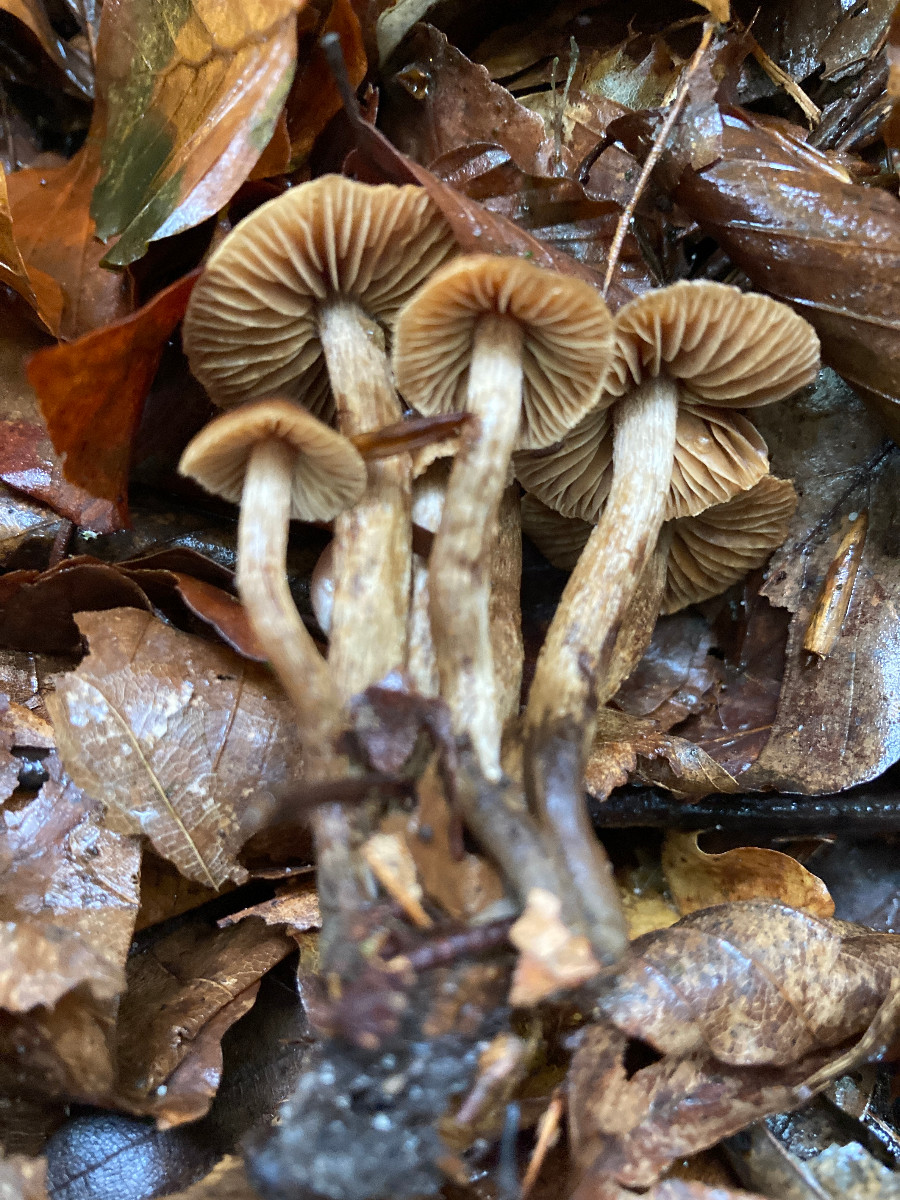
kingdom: Fungi
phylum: Basidiomycota
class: Agaricomycetes
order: Agaricales
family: Cortinariaceae
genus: Cortinarius
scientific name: Cortinarius castaneopallidus
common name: bronzetrævlet slørhat
